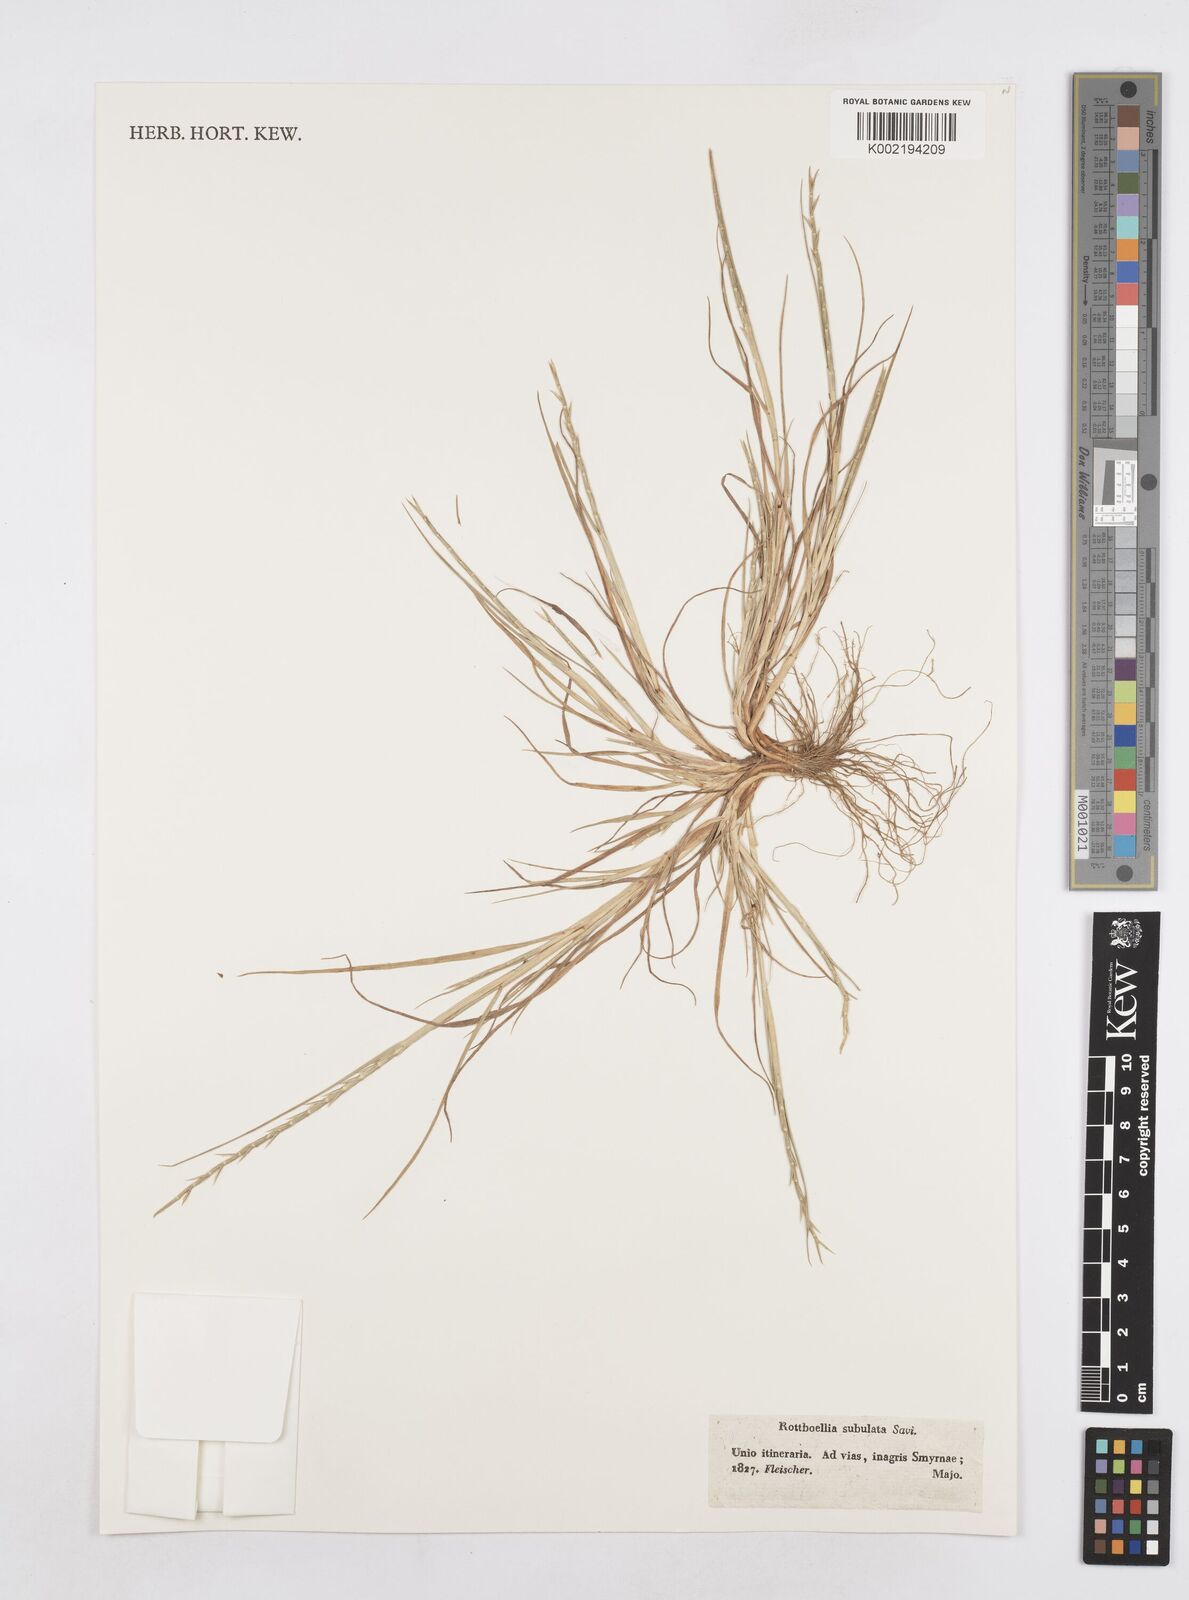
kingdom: Plantae
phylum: Tracheophyta
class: Liliopsida
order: Poales
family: Poaceae
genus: Parapholis
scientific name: Parapholis cylindrica
